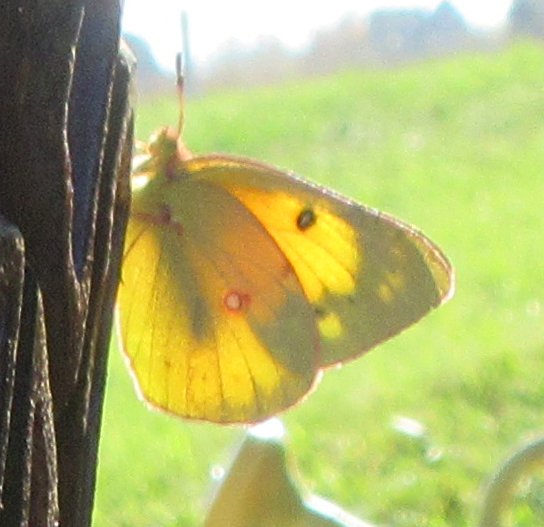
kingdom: Animalia
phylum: Arthropoda
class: Insecta
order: Lepidoptera
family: Pieridae
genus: Colias
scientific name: Colias eurytheme
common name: Orange Sulphur
